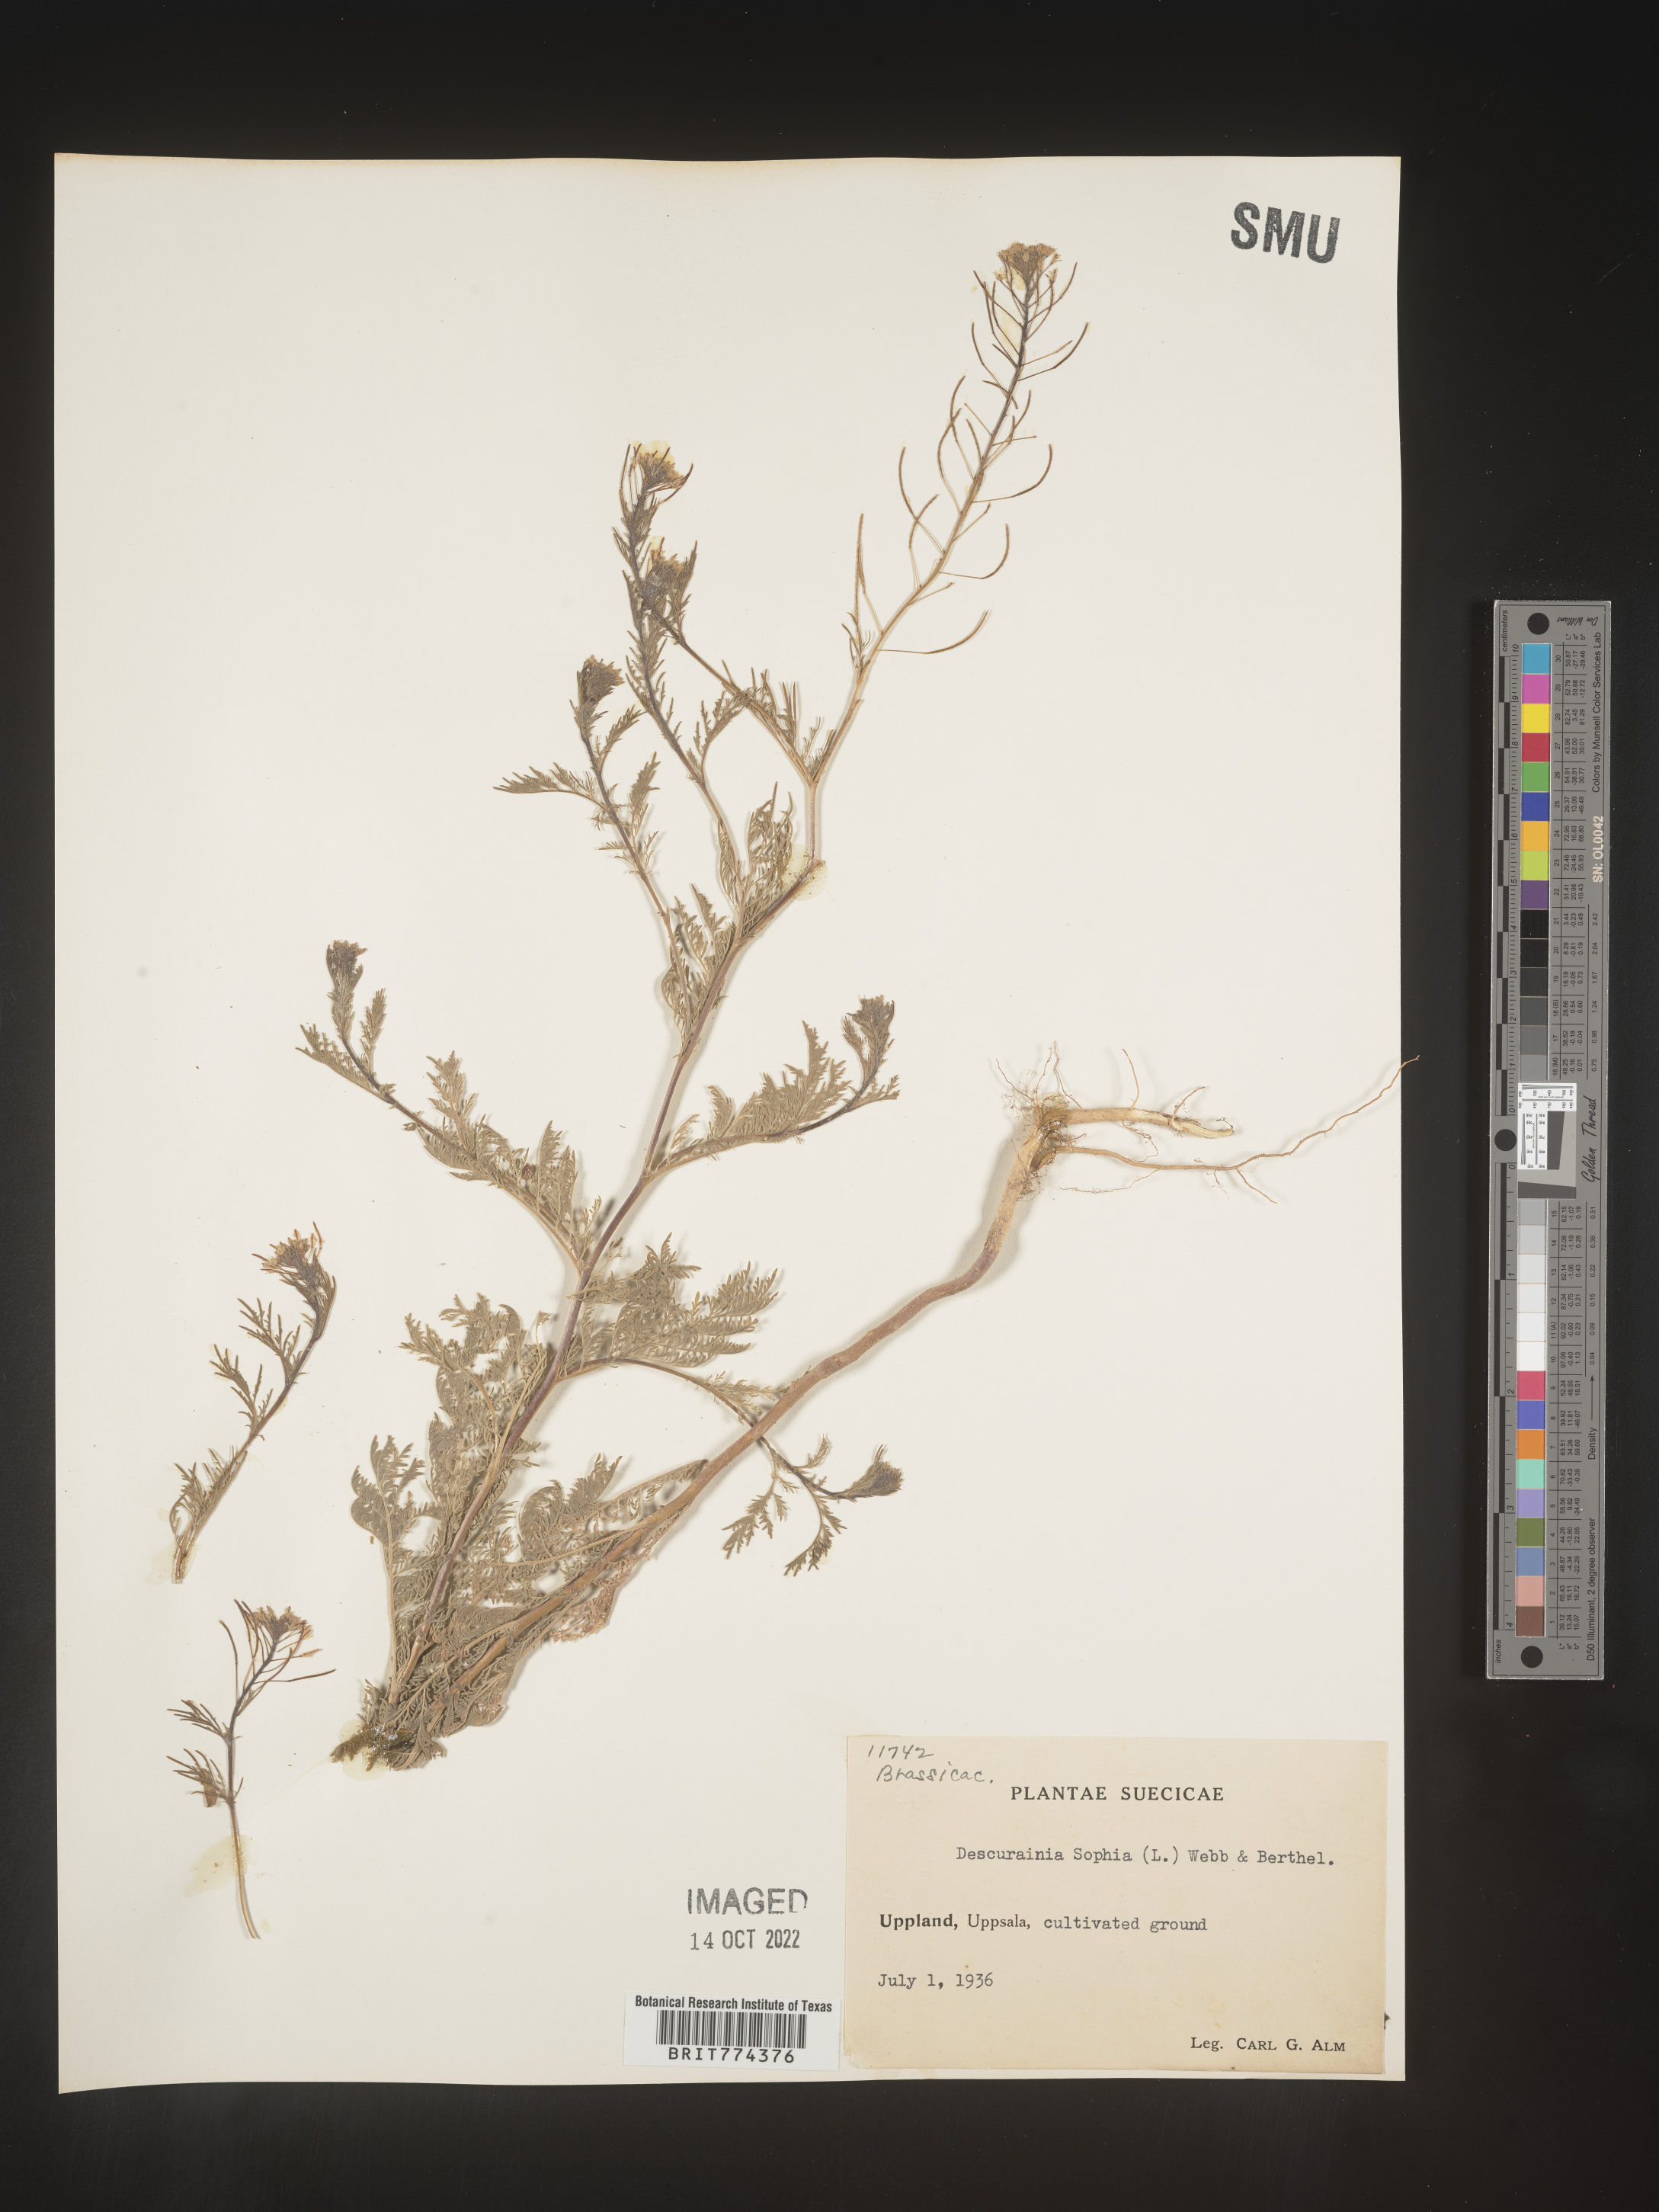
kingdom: Plantae
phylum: Tracheophyta
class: Magnoliopsida
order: Brassicales
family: Brassicaceae
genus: Descurainia
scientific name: Descurainia
